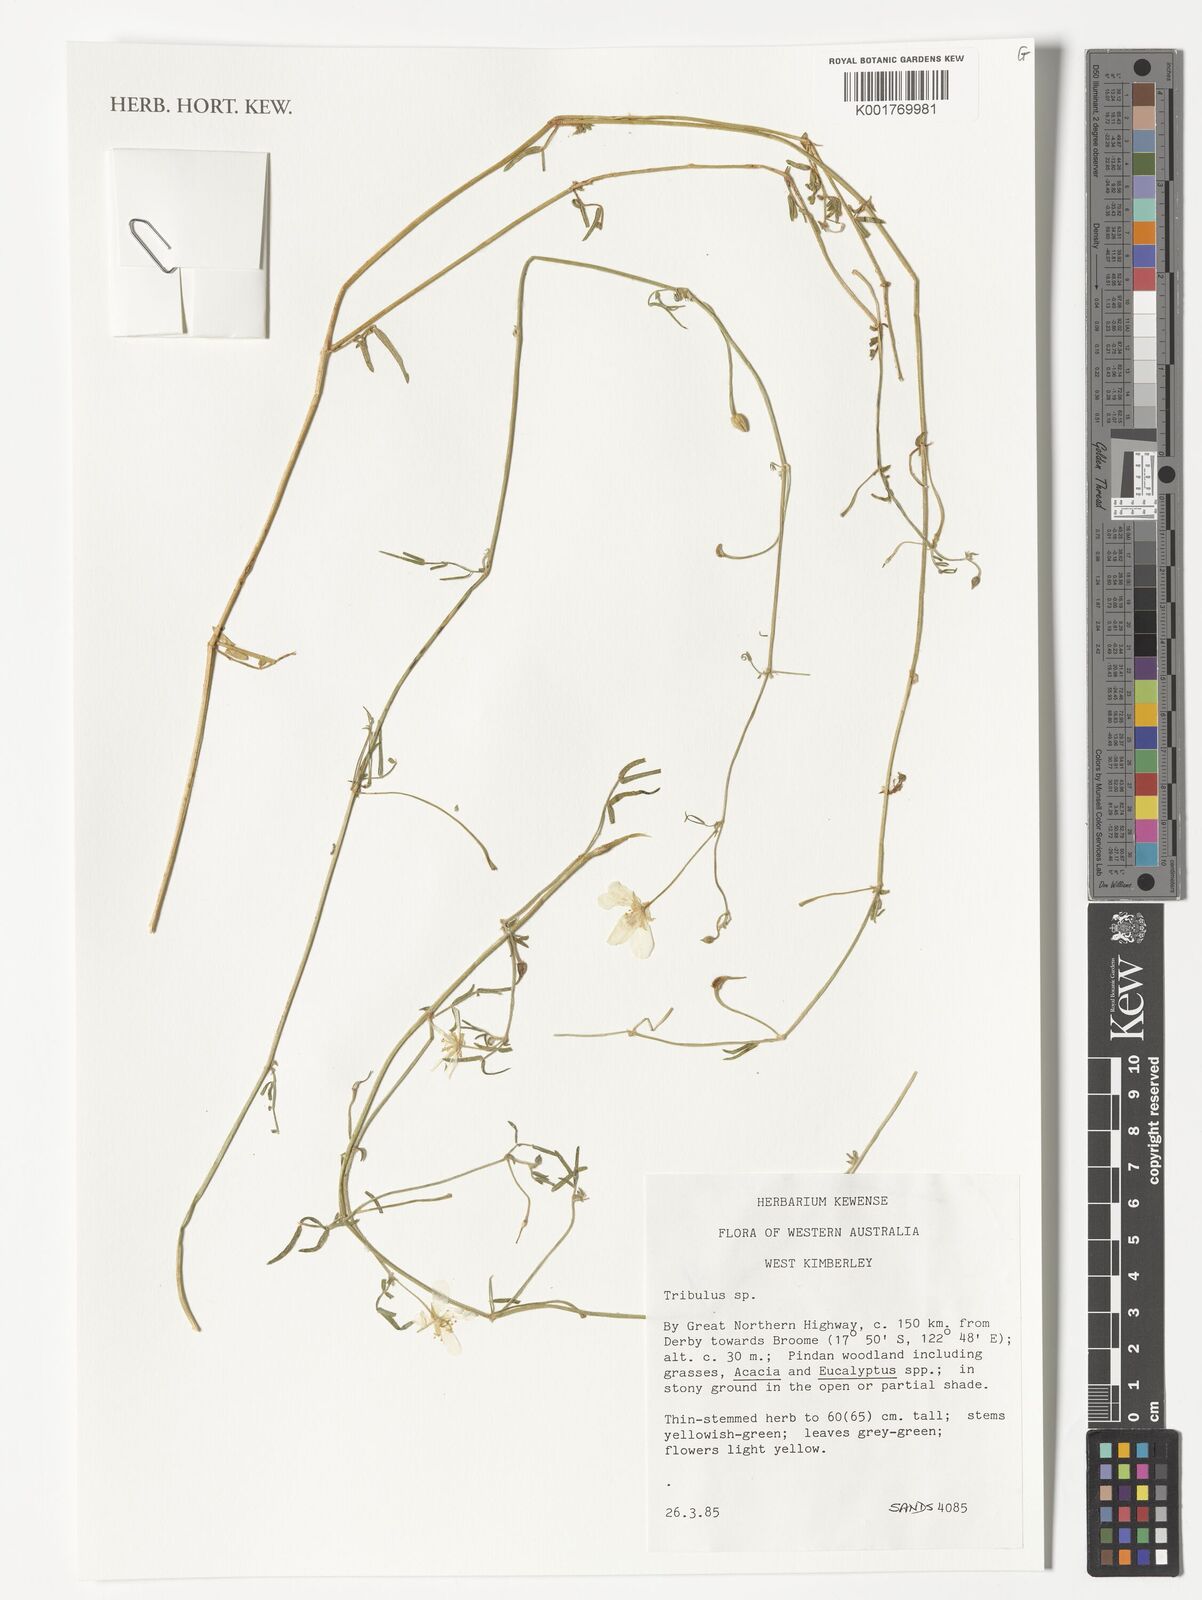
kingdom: Plantae
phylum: Tracheophyta
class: Magnoliopsida
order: Zygophyllales
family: Zygophyllaceae
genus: Tribulus
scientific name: Tribulus
